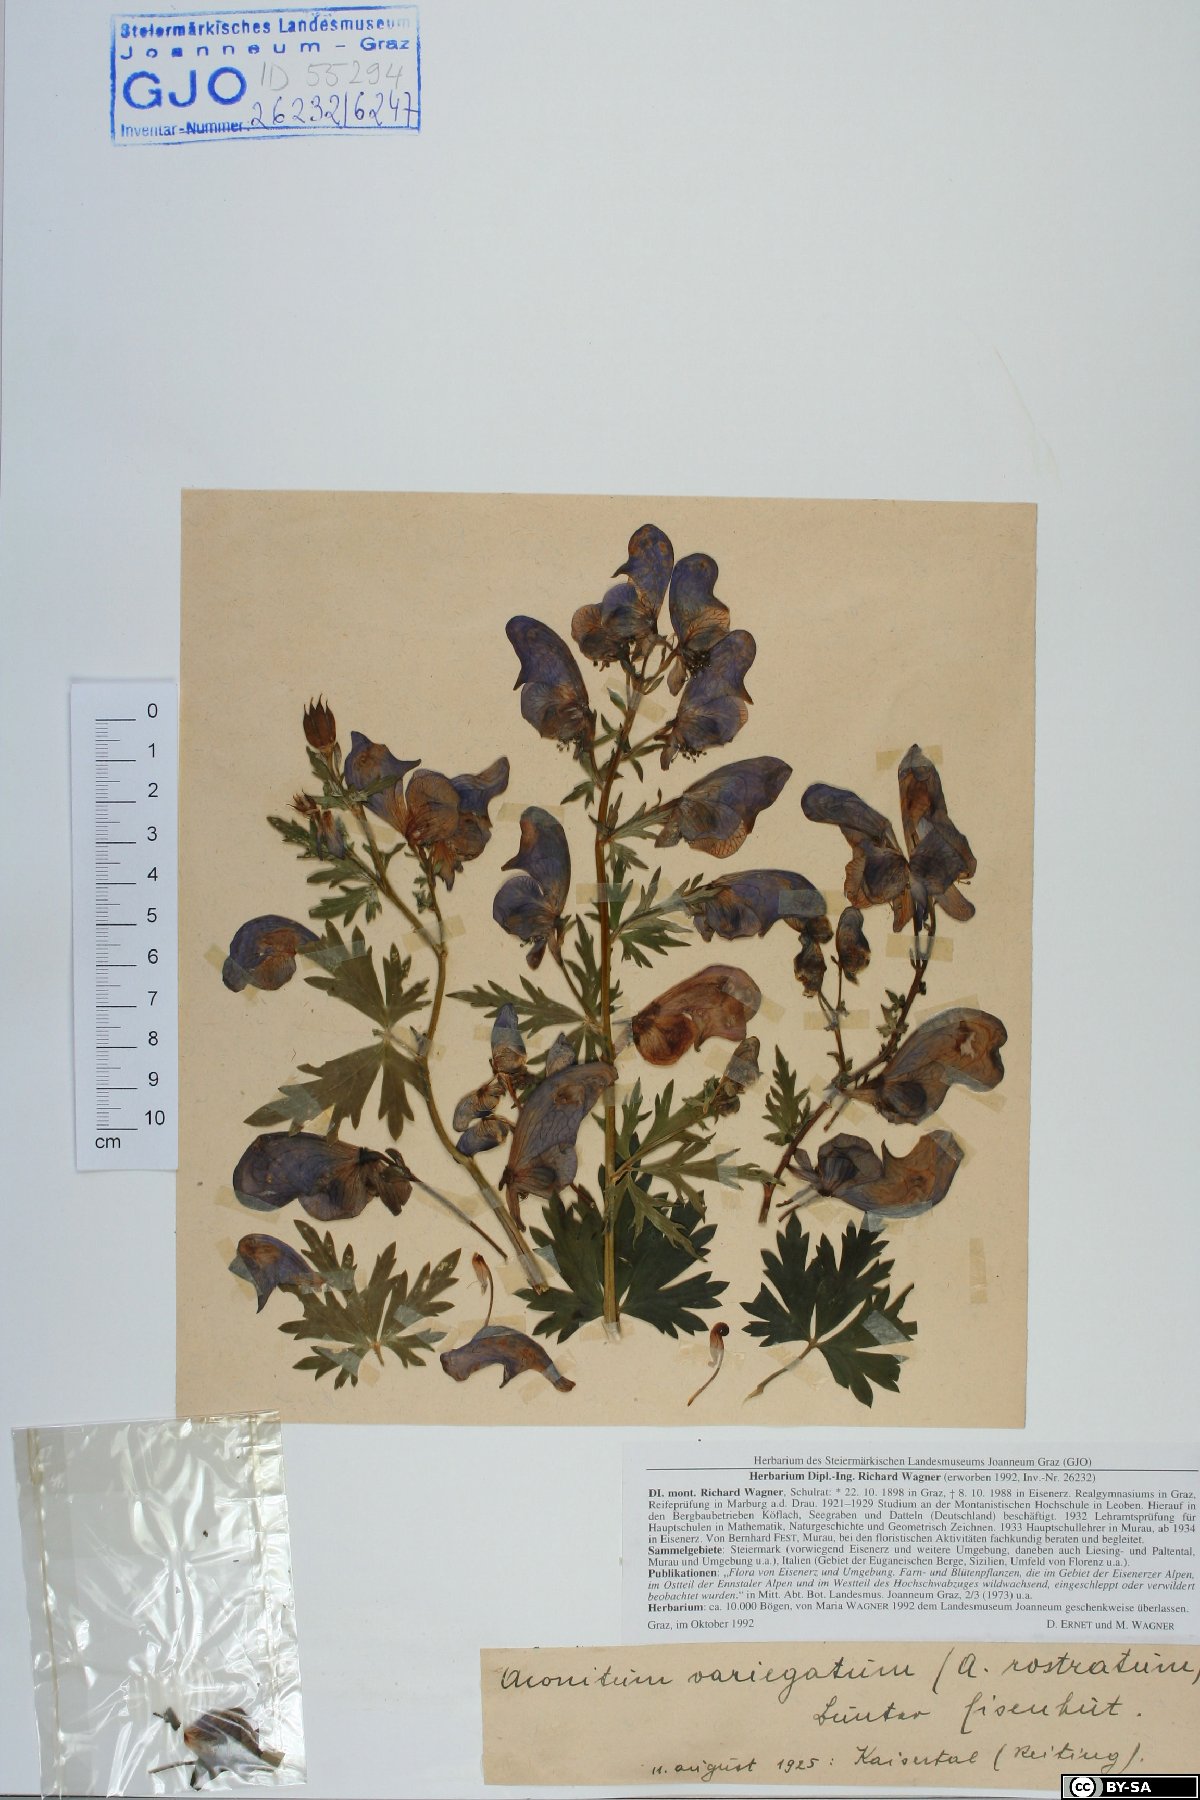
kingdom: Plantae
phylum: Tracheophyta
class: Magnoliopsida
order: Ranunculales
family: Ranunculaceae
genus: Aconitum
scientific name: Aconitum variegatum
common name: Manchurian monkshood
